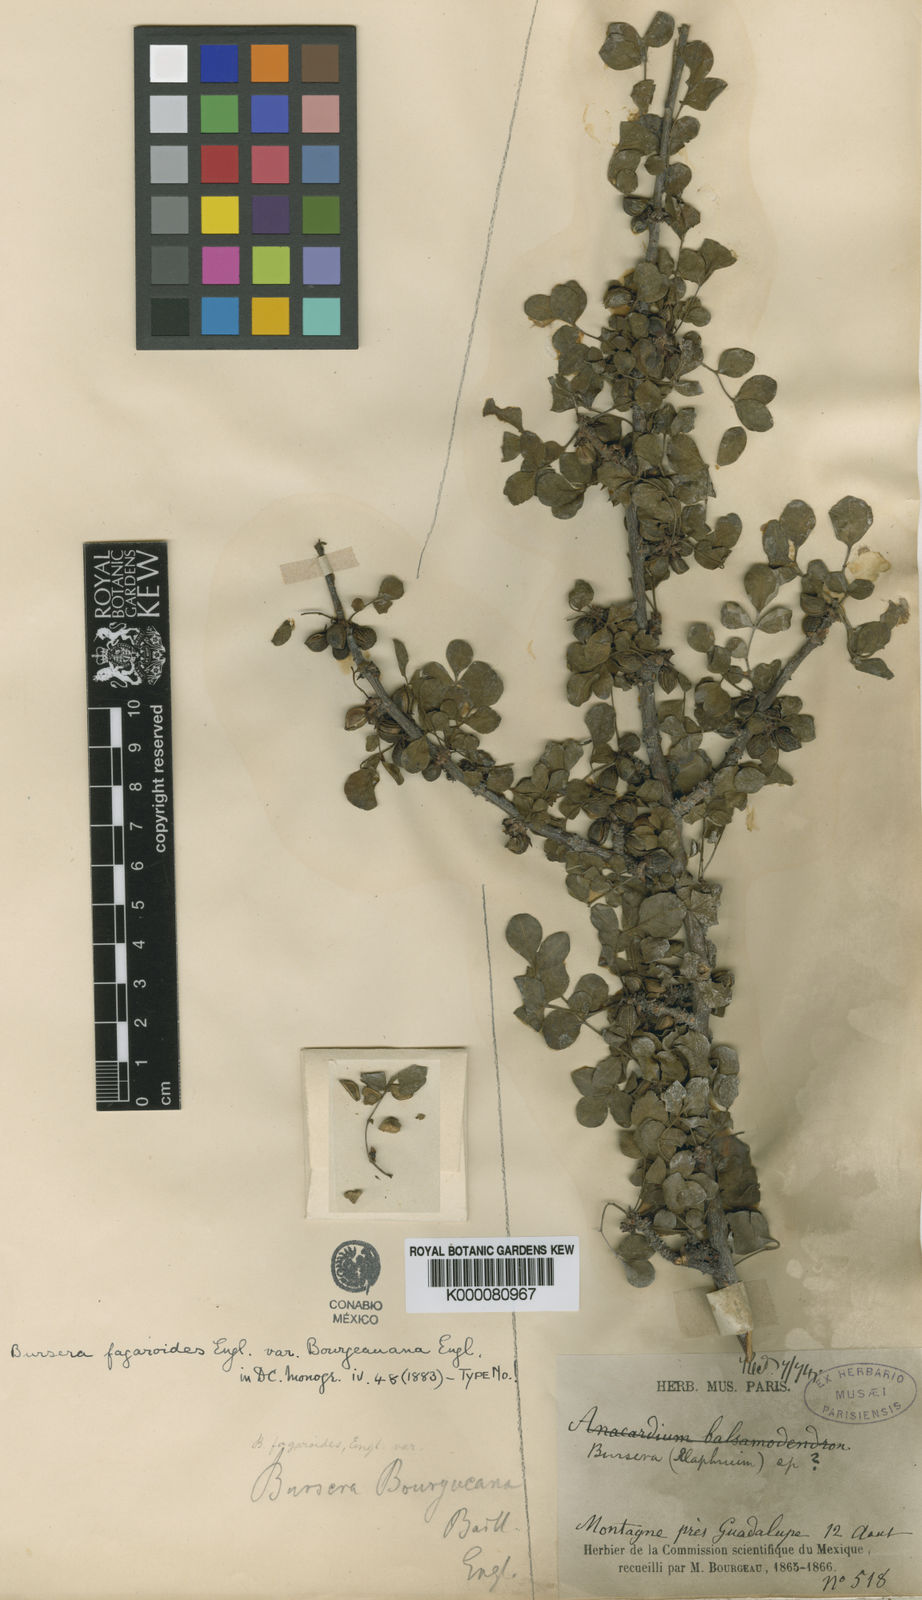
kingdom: Plantae
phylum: Tracheophyta
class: Magnoliopsida
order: Sapindales
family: Burseraceae
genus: Bursera
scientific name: Bursera fagaroides
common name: Elephant tree
